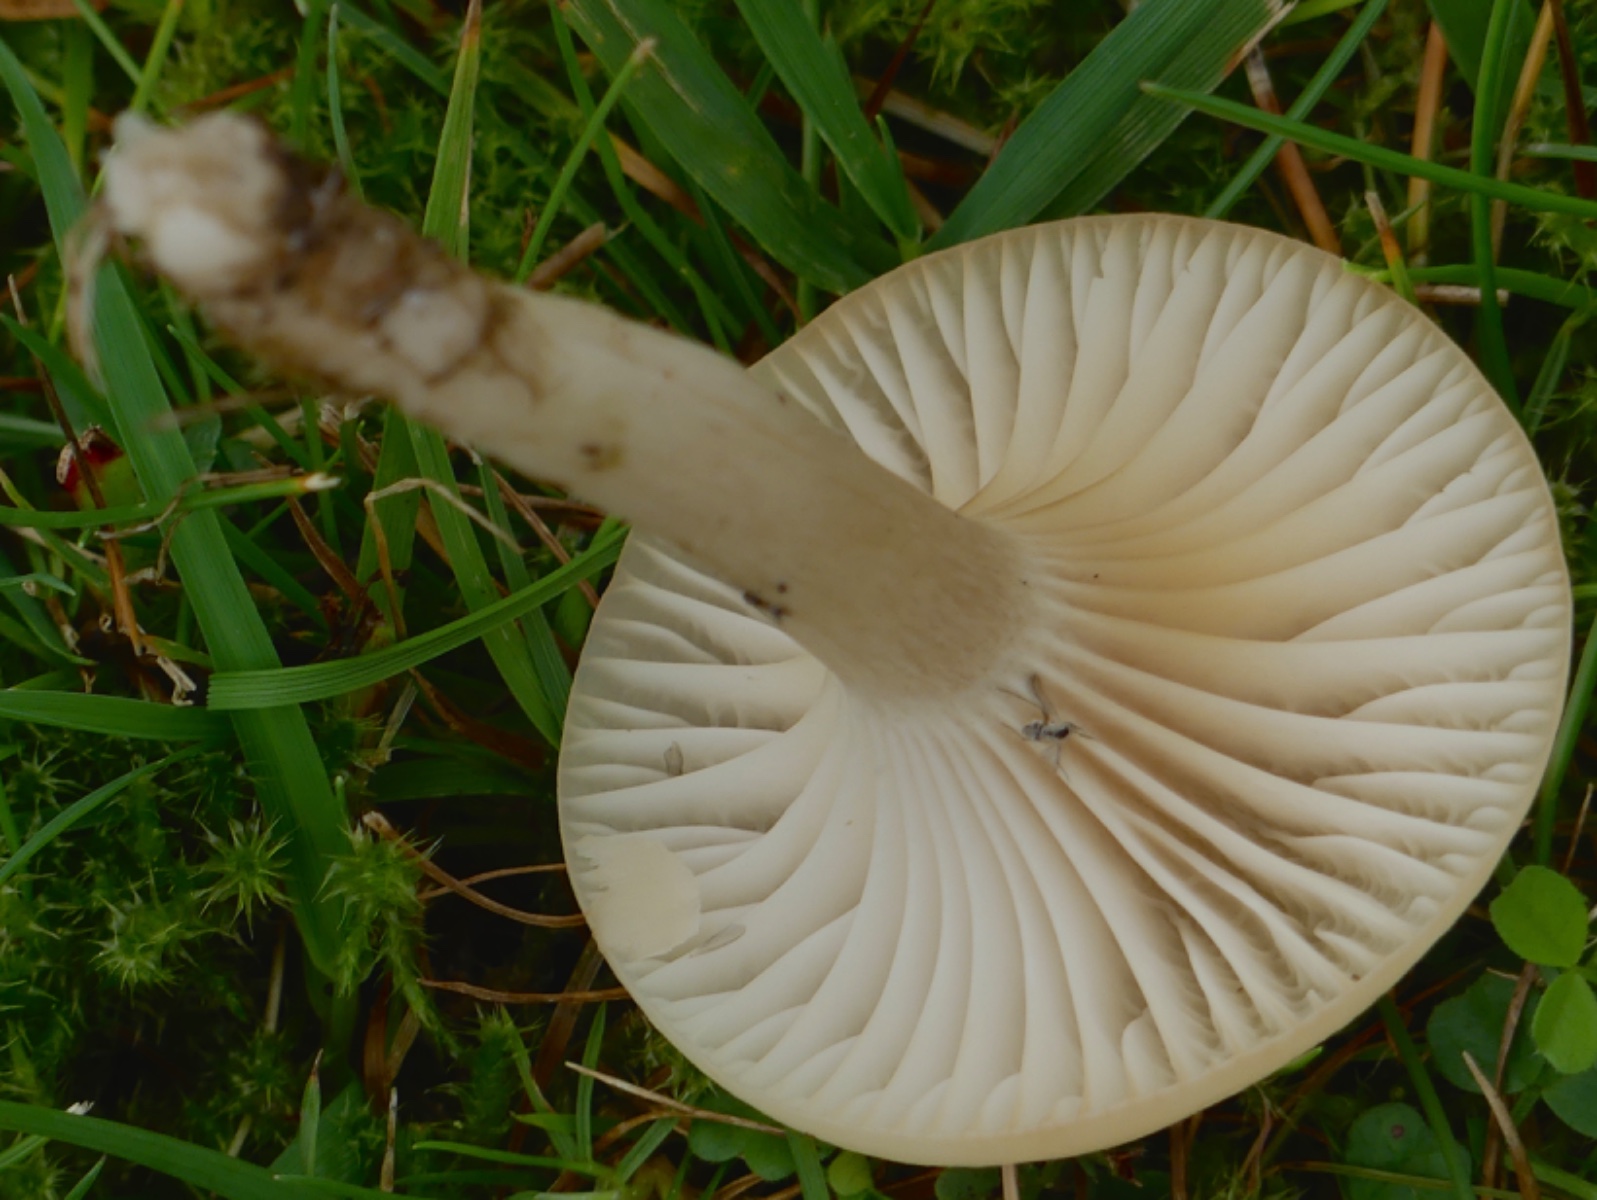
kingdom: Fungi
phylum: Basidiomycota
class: Agaricomycetes
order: Agaricales
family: Hygrophoraceae
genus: Cuphophyllus
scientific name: Cuphophyllus virgineus
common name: isabella-vokshat
